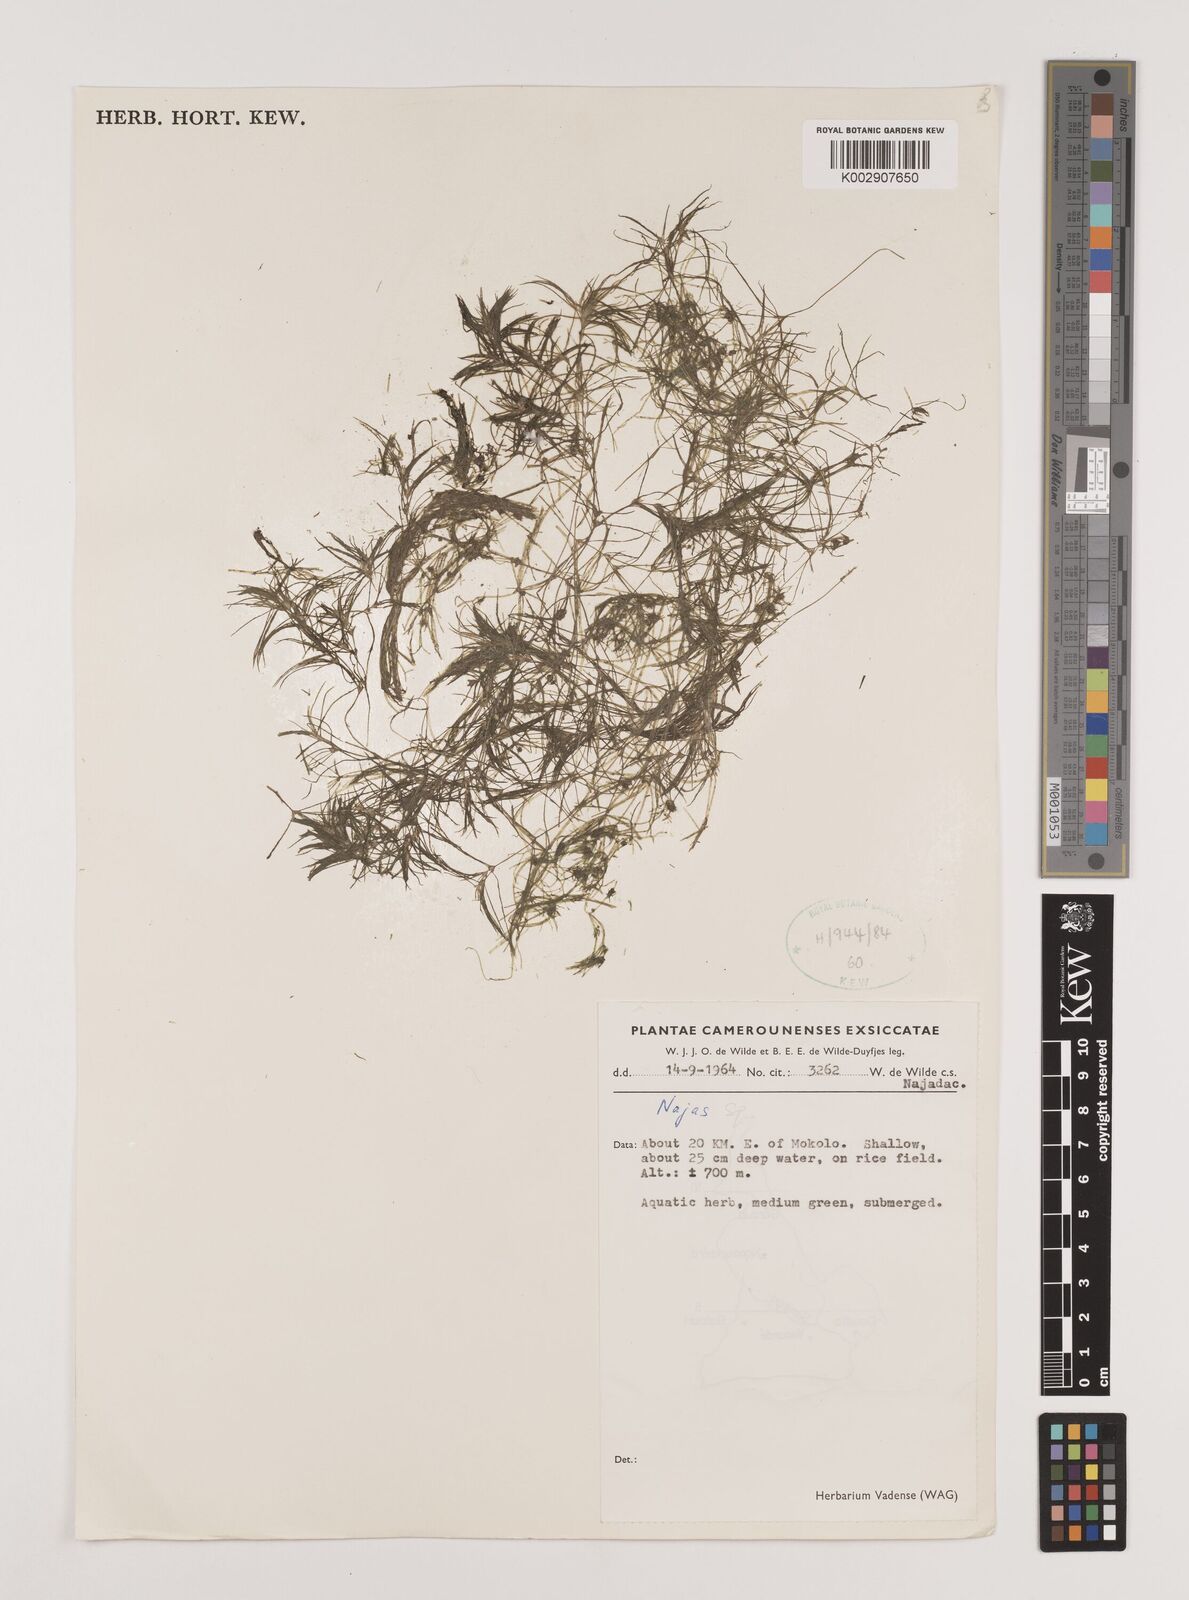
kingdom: Plantae
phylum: Tracheophyta
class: Liliopsida
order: Alismatales
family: Hydrocharitaceae
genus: Najas
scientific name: Najas
